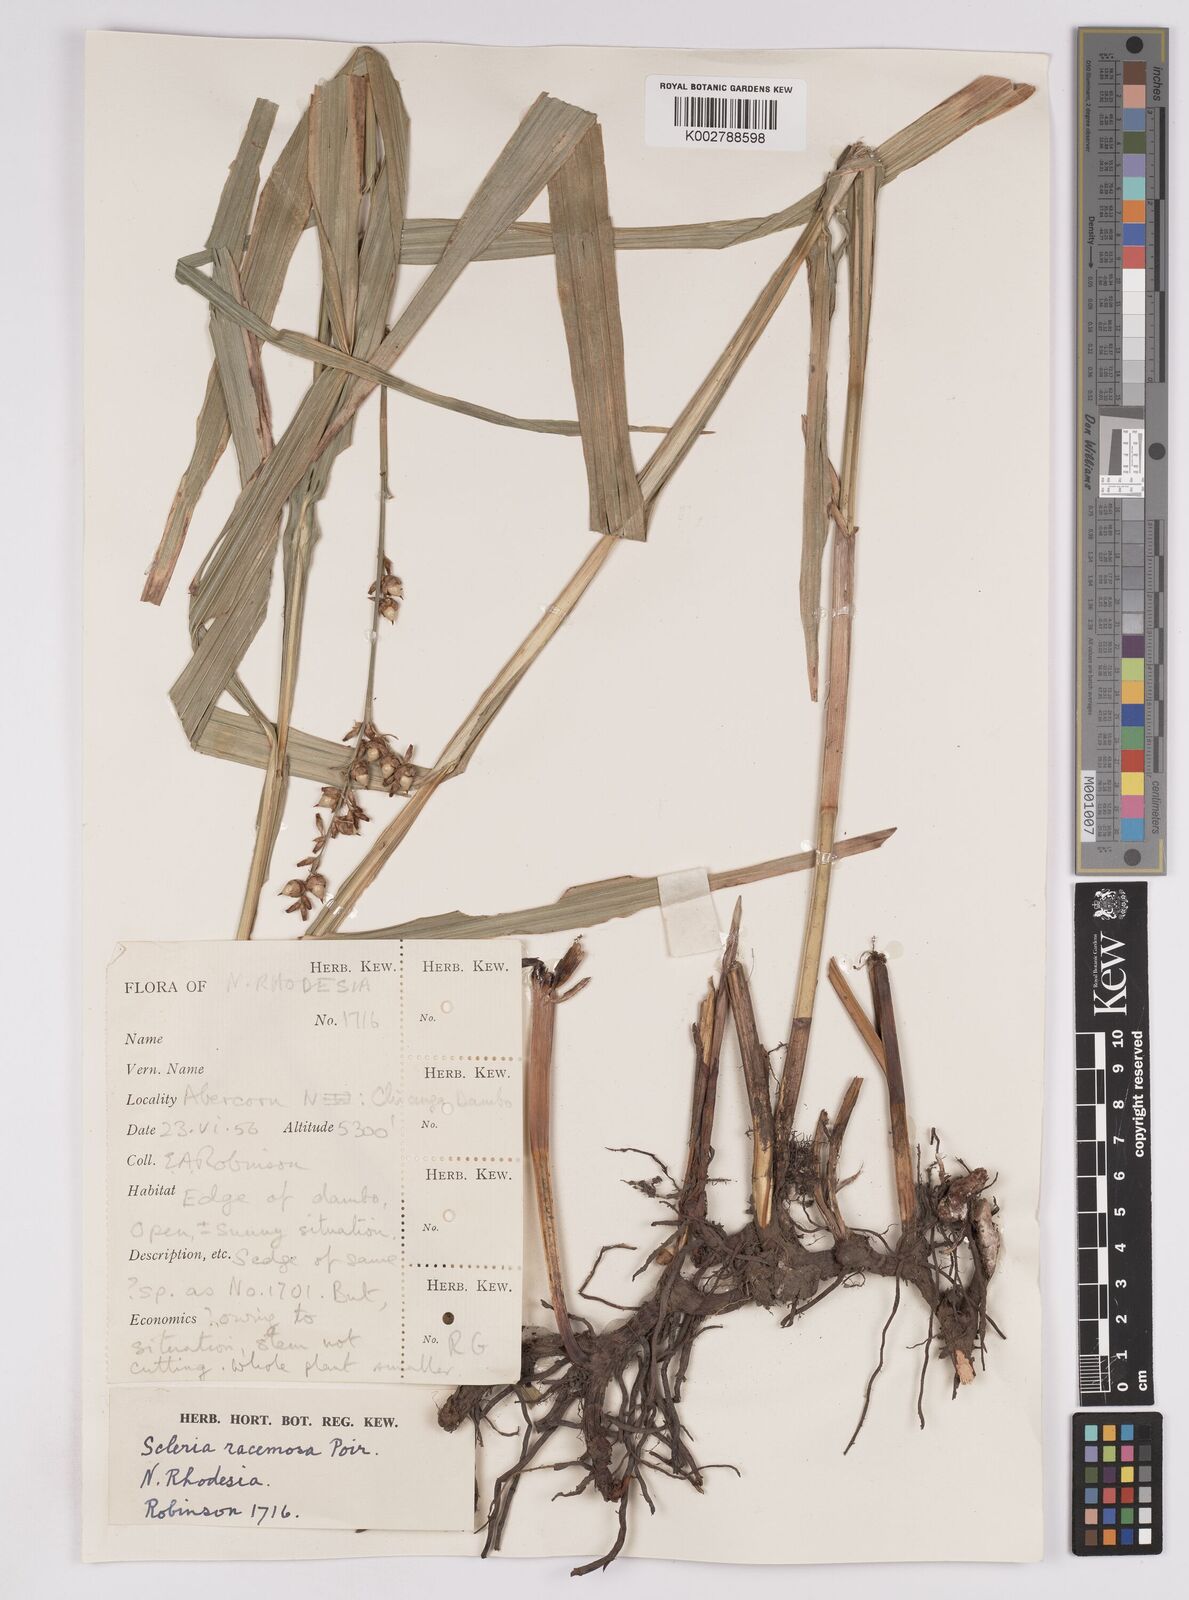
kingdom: Plantae
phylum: Tracheophyta
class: Liliopsida
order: Poales
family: Cyperaceae
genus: Scleria
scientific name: Scleria racemosa
